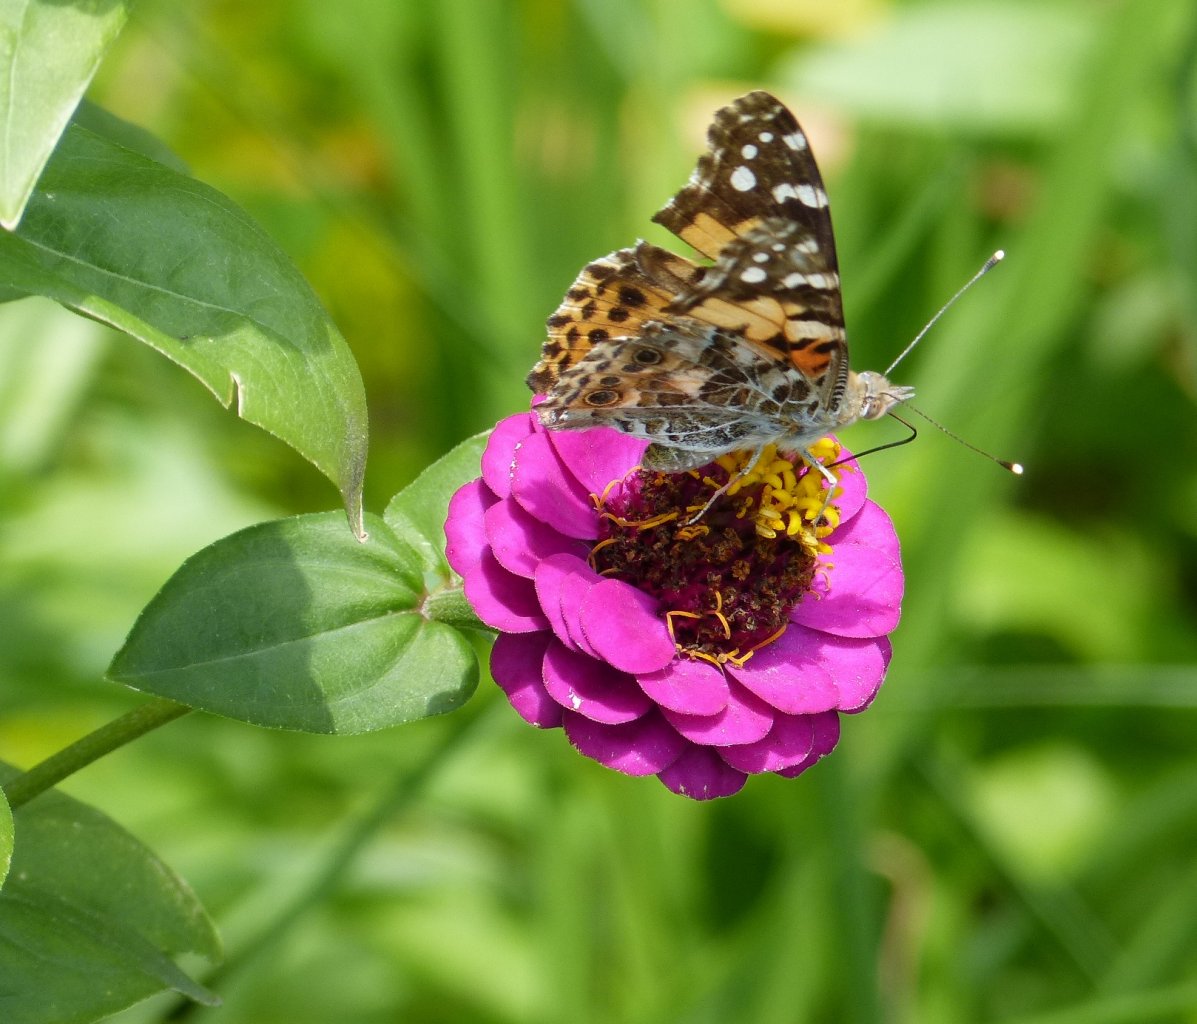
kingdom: Animalia
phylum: Arthropoda
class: Insecta
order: Lepidoptera
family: Nymphalidae
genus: Vanessa
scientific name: Vanessa cardui
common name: Painted Lady
